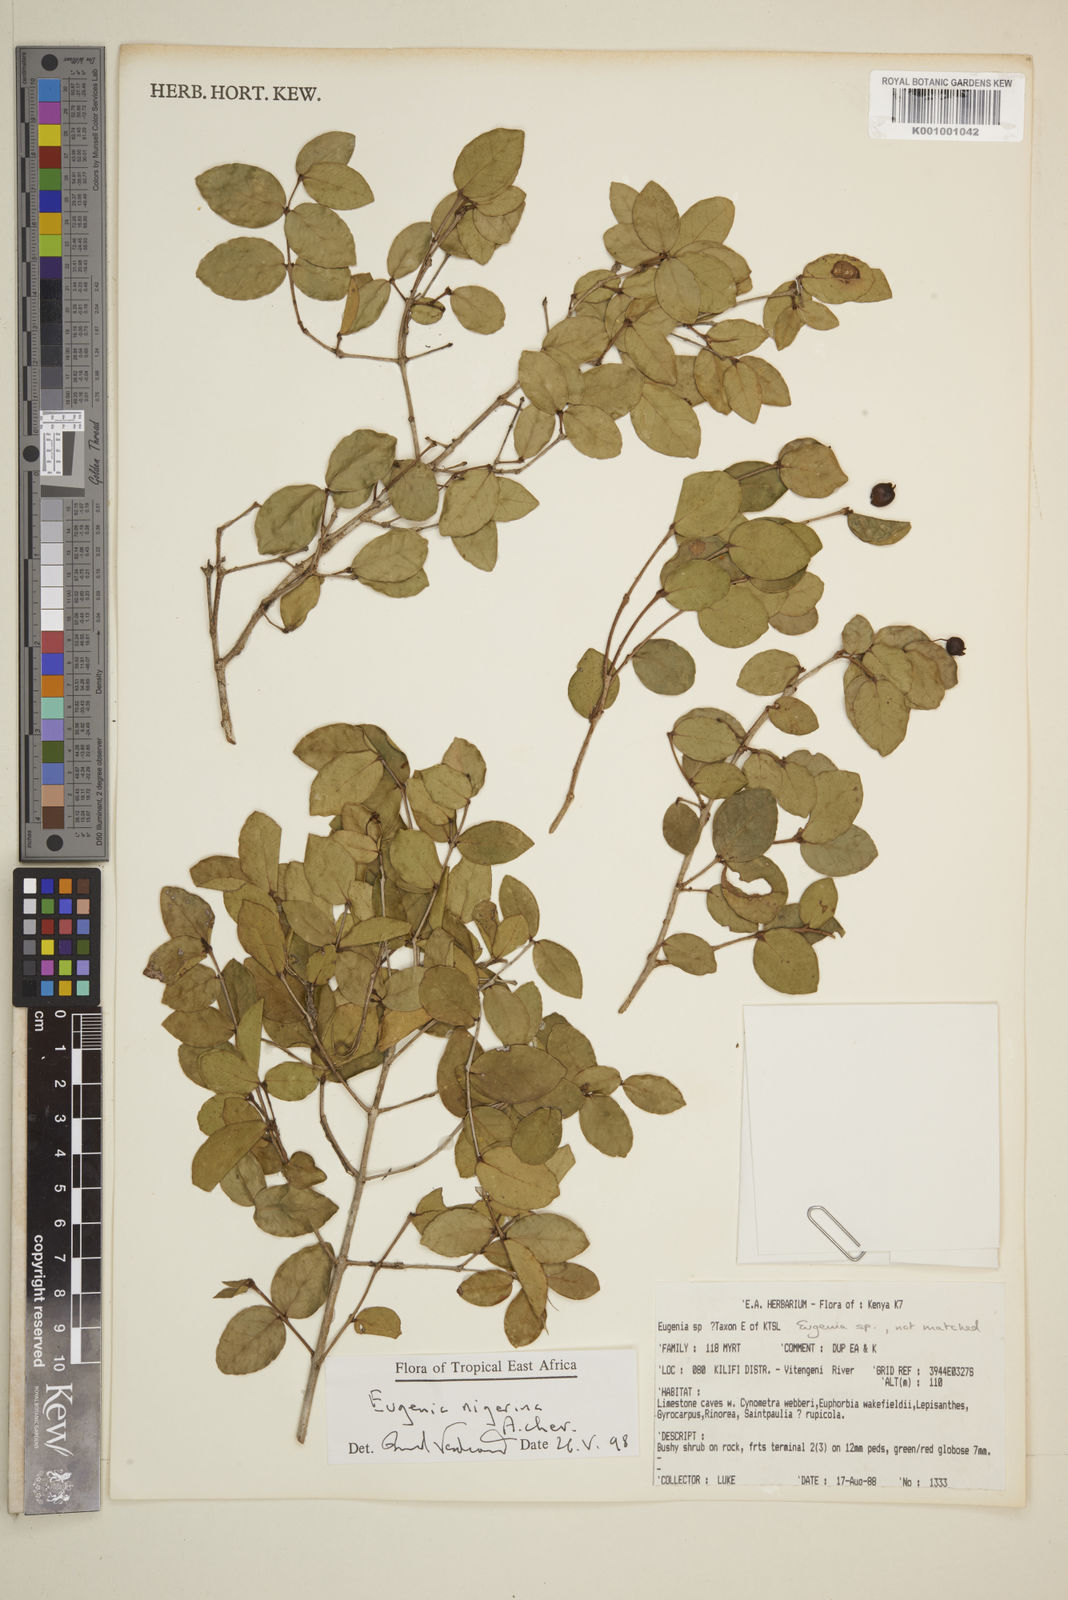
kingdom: Plantae
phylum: Tracheophyta
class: Magnoliopsida
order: Myrtales
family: Myrtaceae
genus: Eugenia
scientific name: Eugenia nigerina
